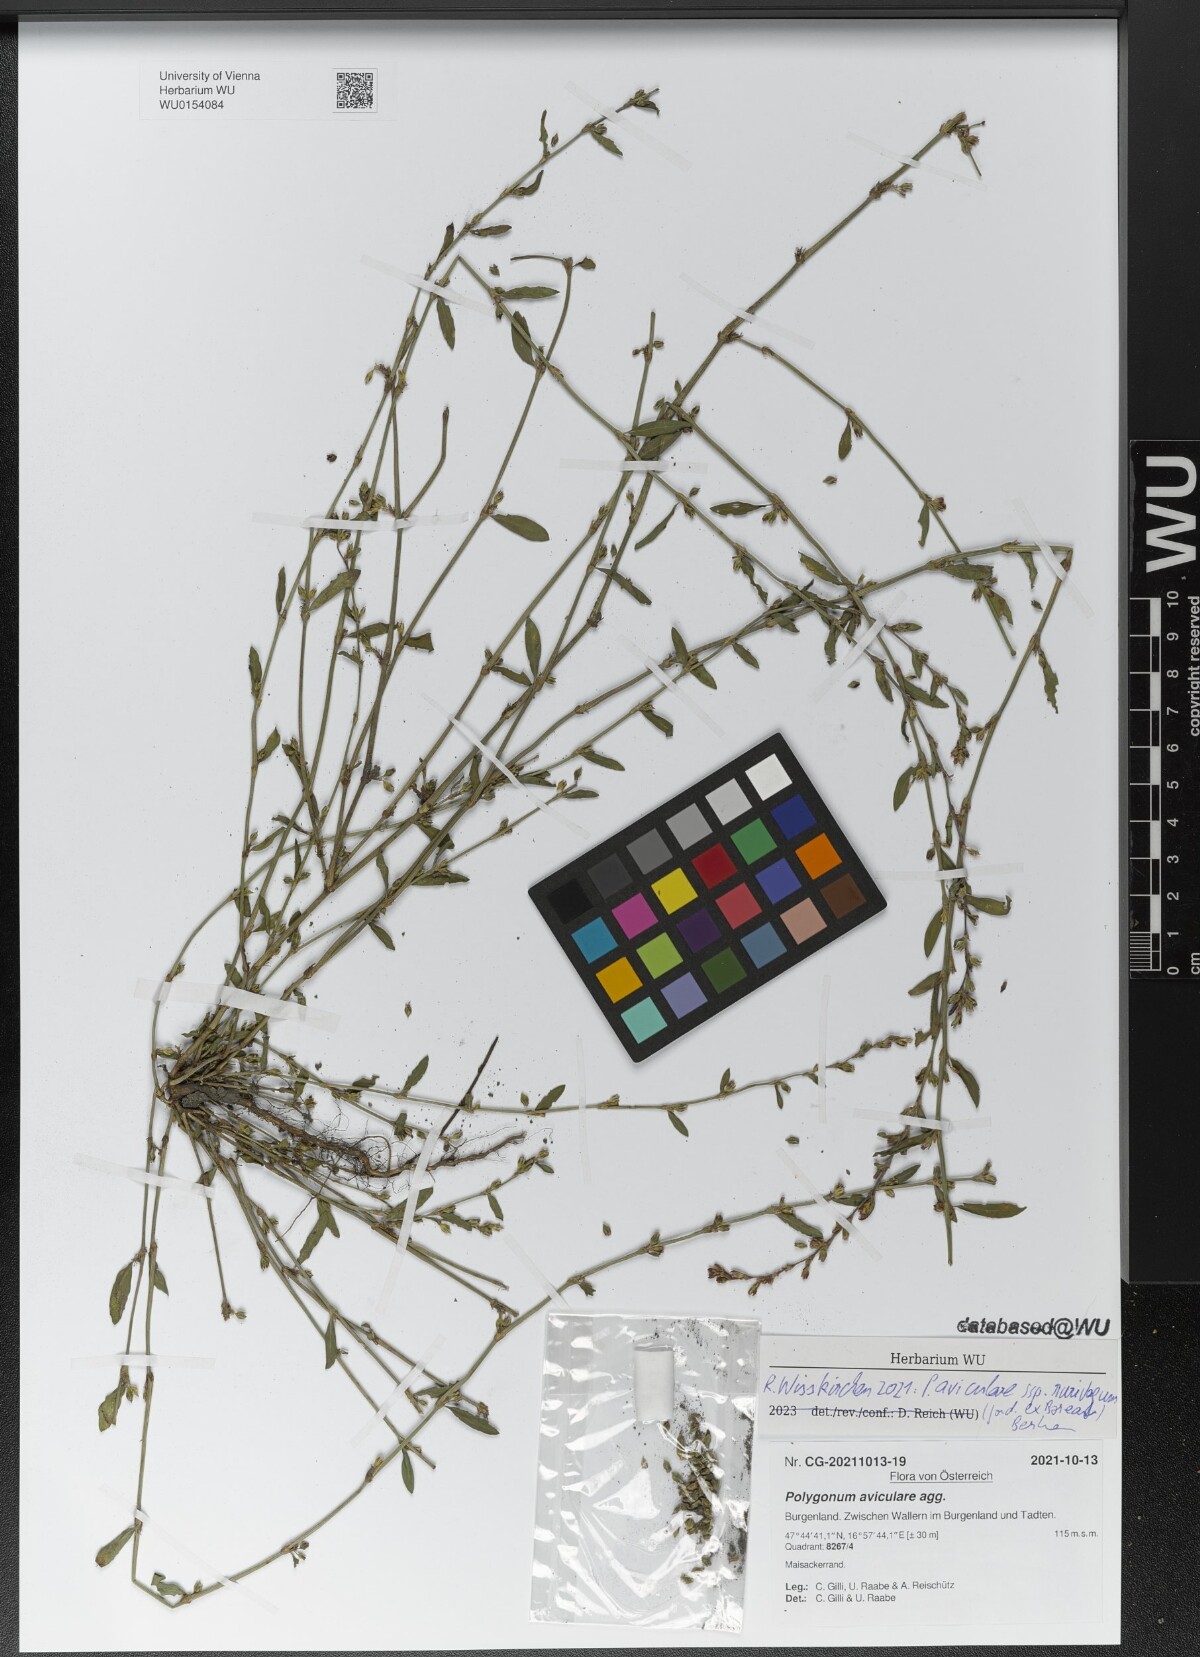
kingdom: Plantae
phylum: Tracheophyta
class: Magnoliopsida
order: Caryophyllales
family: Polygonaceae
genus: Polygonum
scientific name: Polygonum aviculare
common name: Prostrate knotweed
